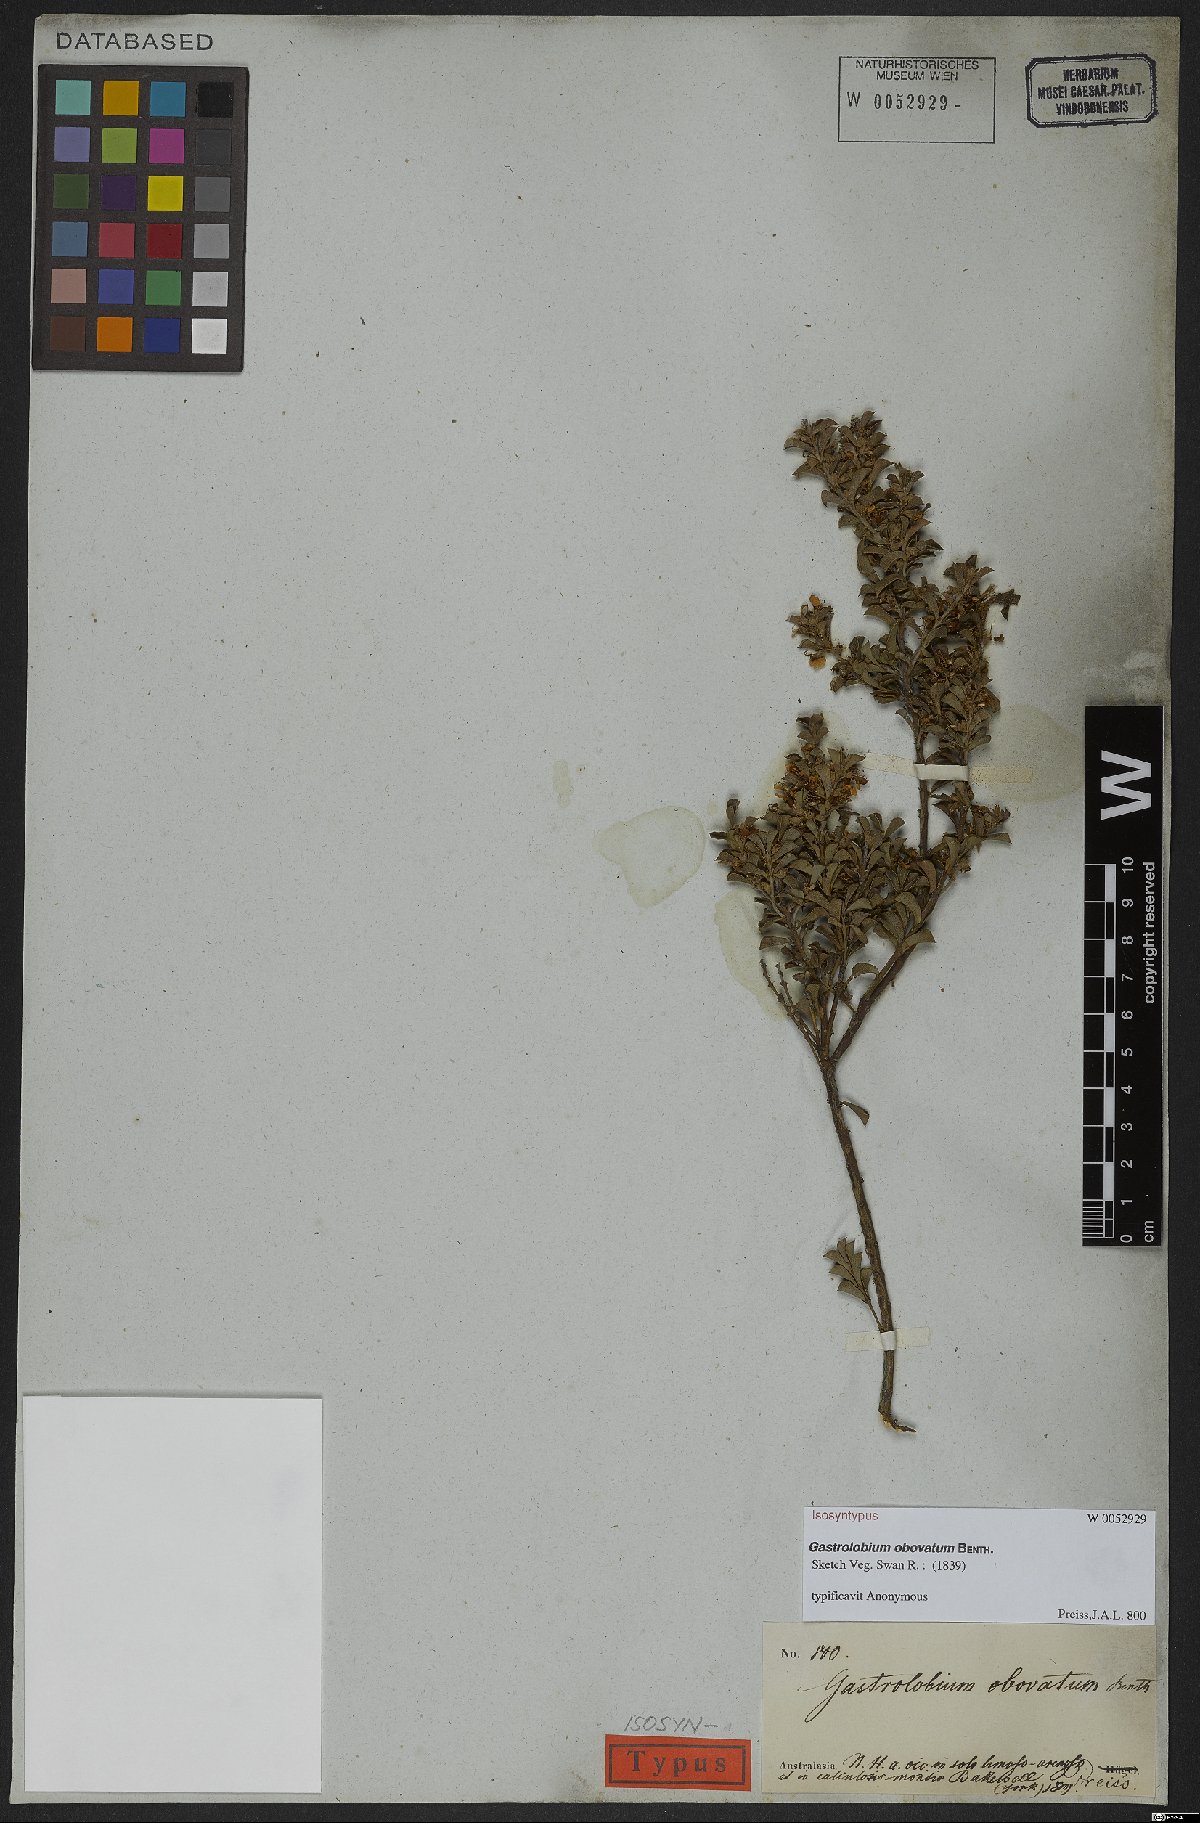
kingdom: Plantae
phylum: Tracheophyta
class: Magnoliopsida
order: Fabales
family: Fabaceae
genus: Gastrolobium
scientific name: Gastrolobium obovatum
